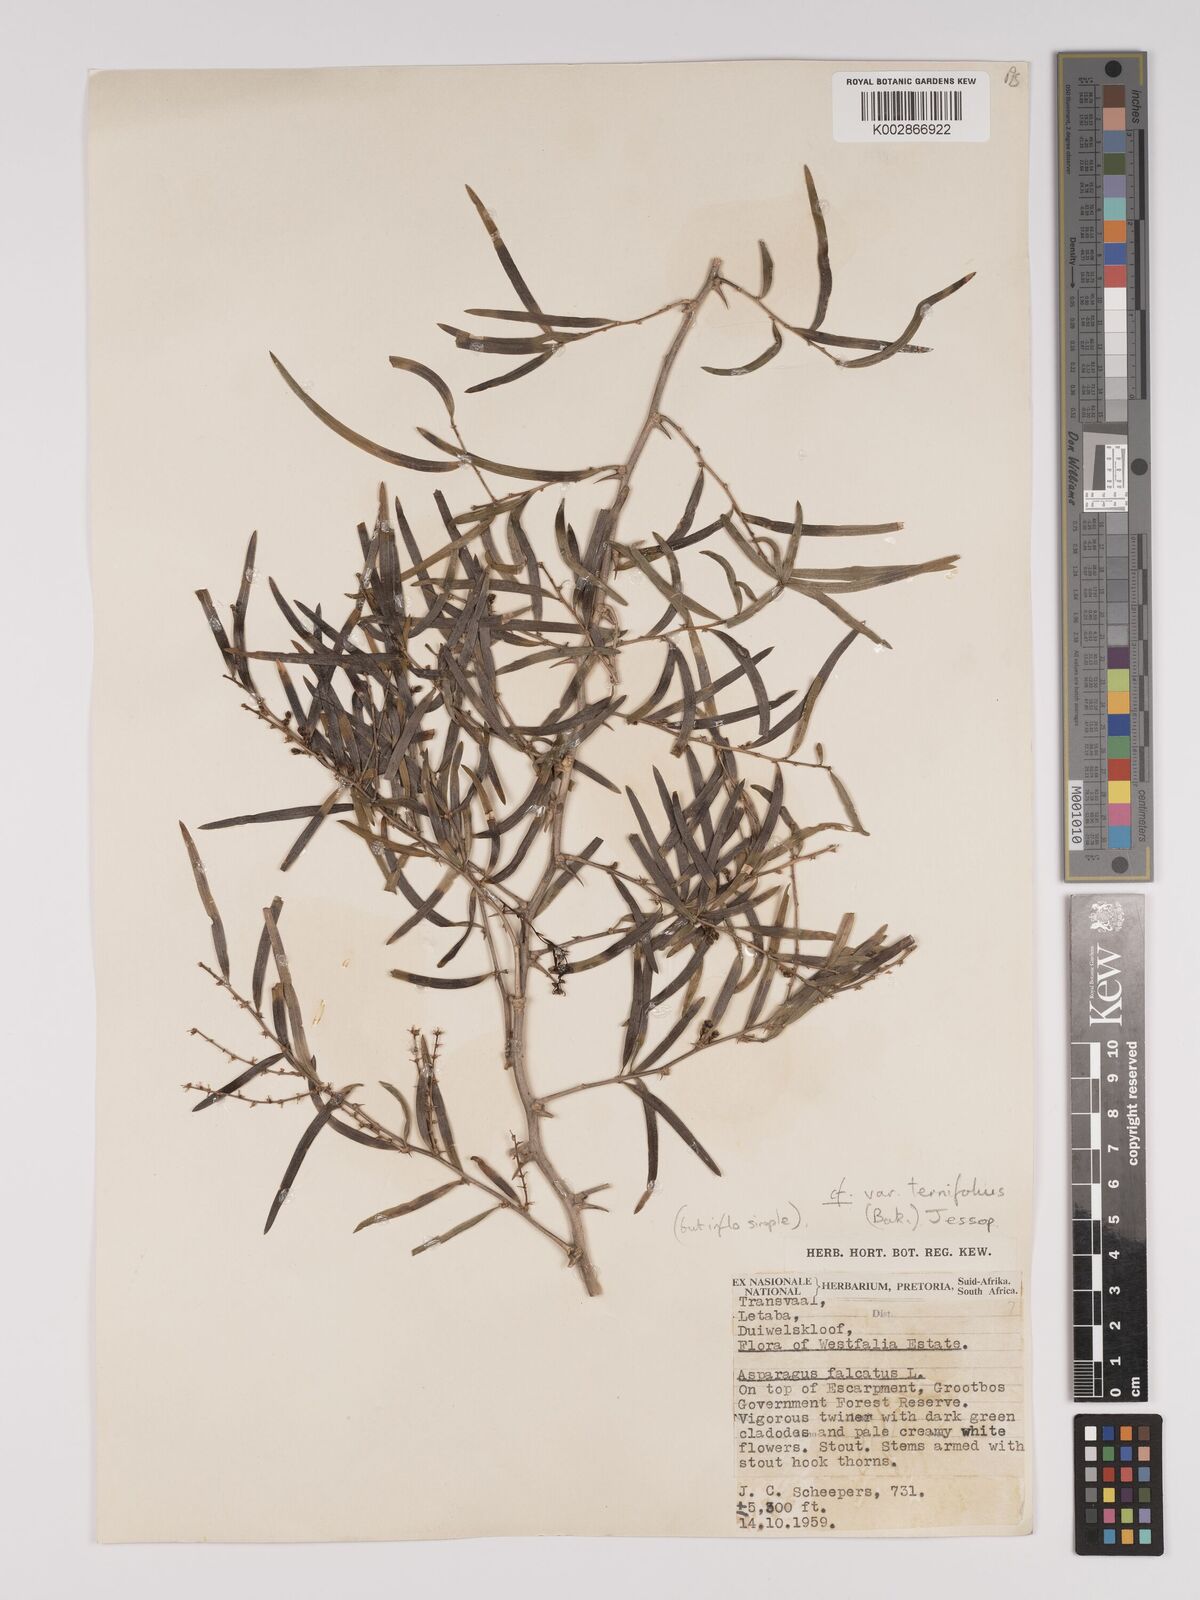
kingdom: Plantae
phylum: Tracheophyta
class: Liliopsida
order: Asparagales
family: Asparagaceae
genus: Asparagus
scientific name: Asparagus falcatus
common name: Asparagus
